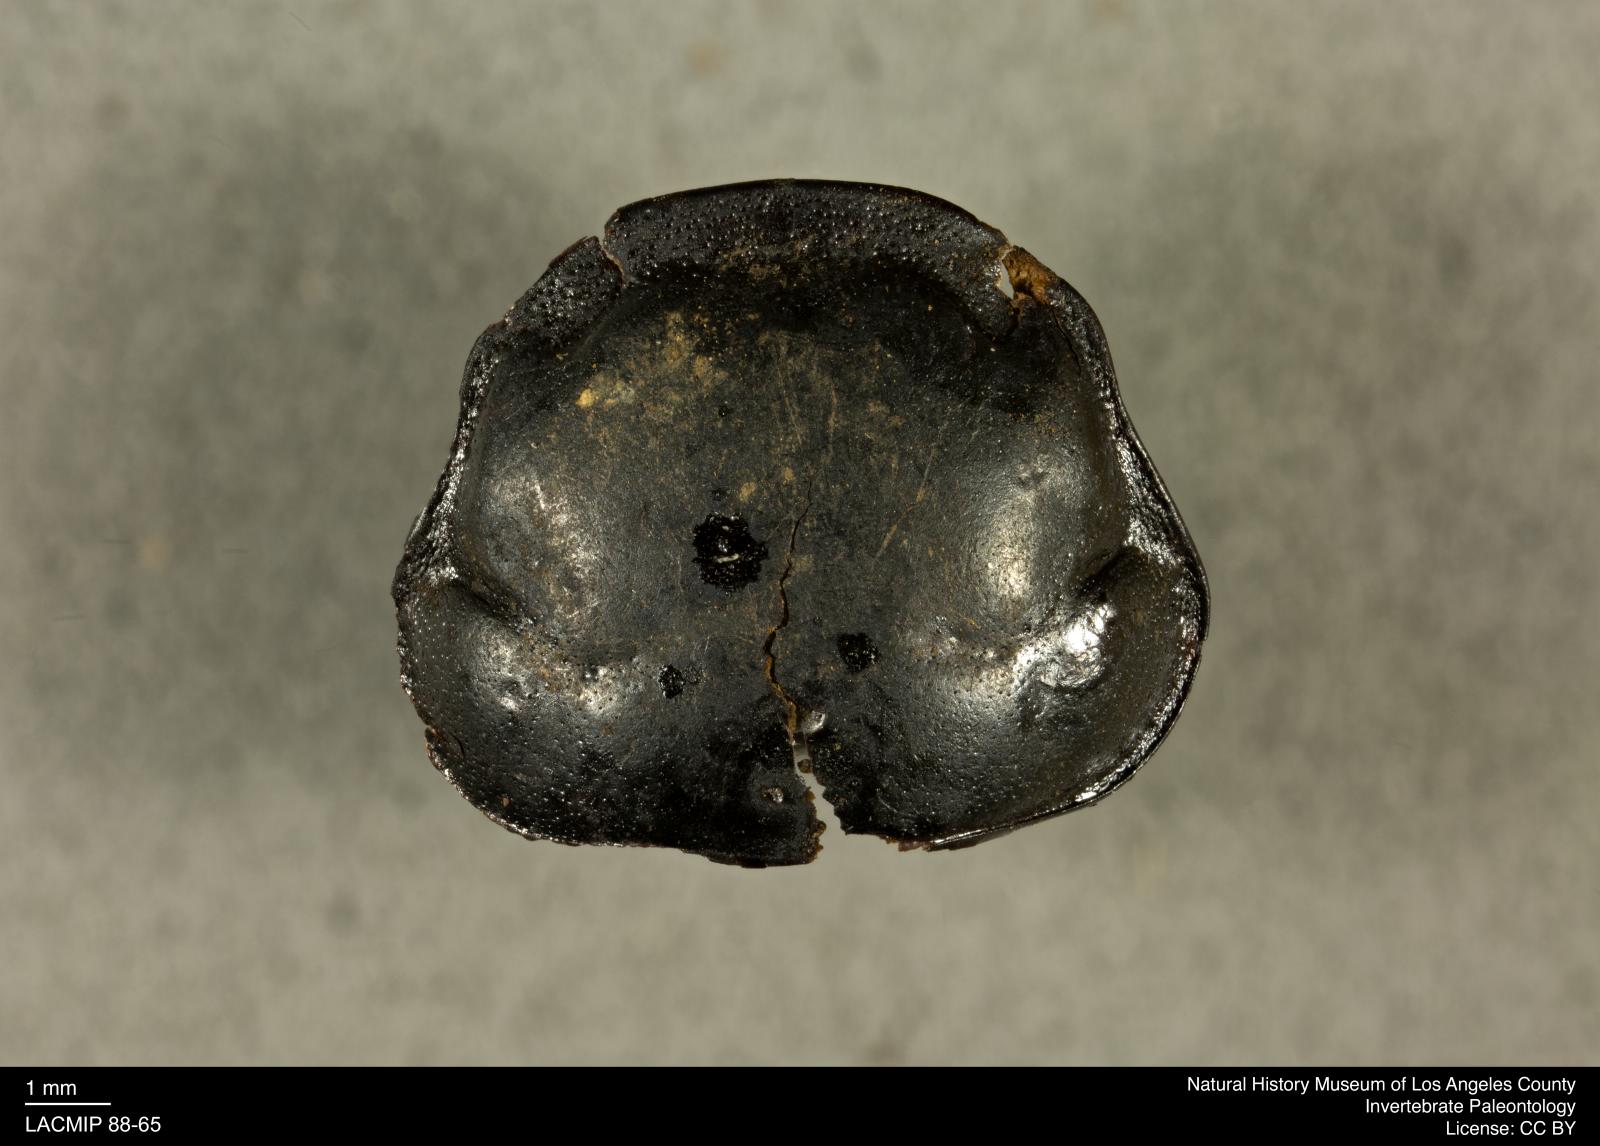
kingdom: Animalia
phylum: Arthropoda
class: Insecta
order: Coleoptera
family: Staphylinidae
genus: Nicrophorus
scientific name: Nicrophorus marginatus
